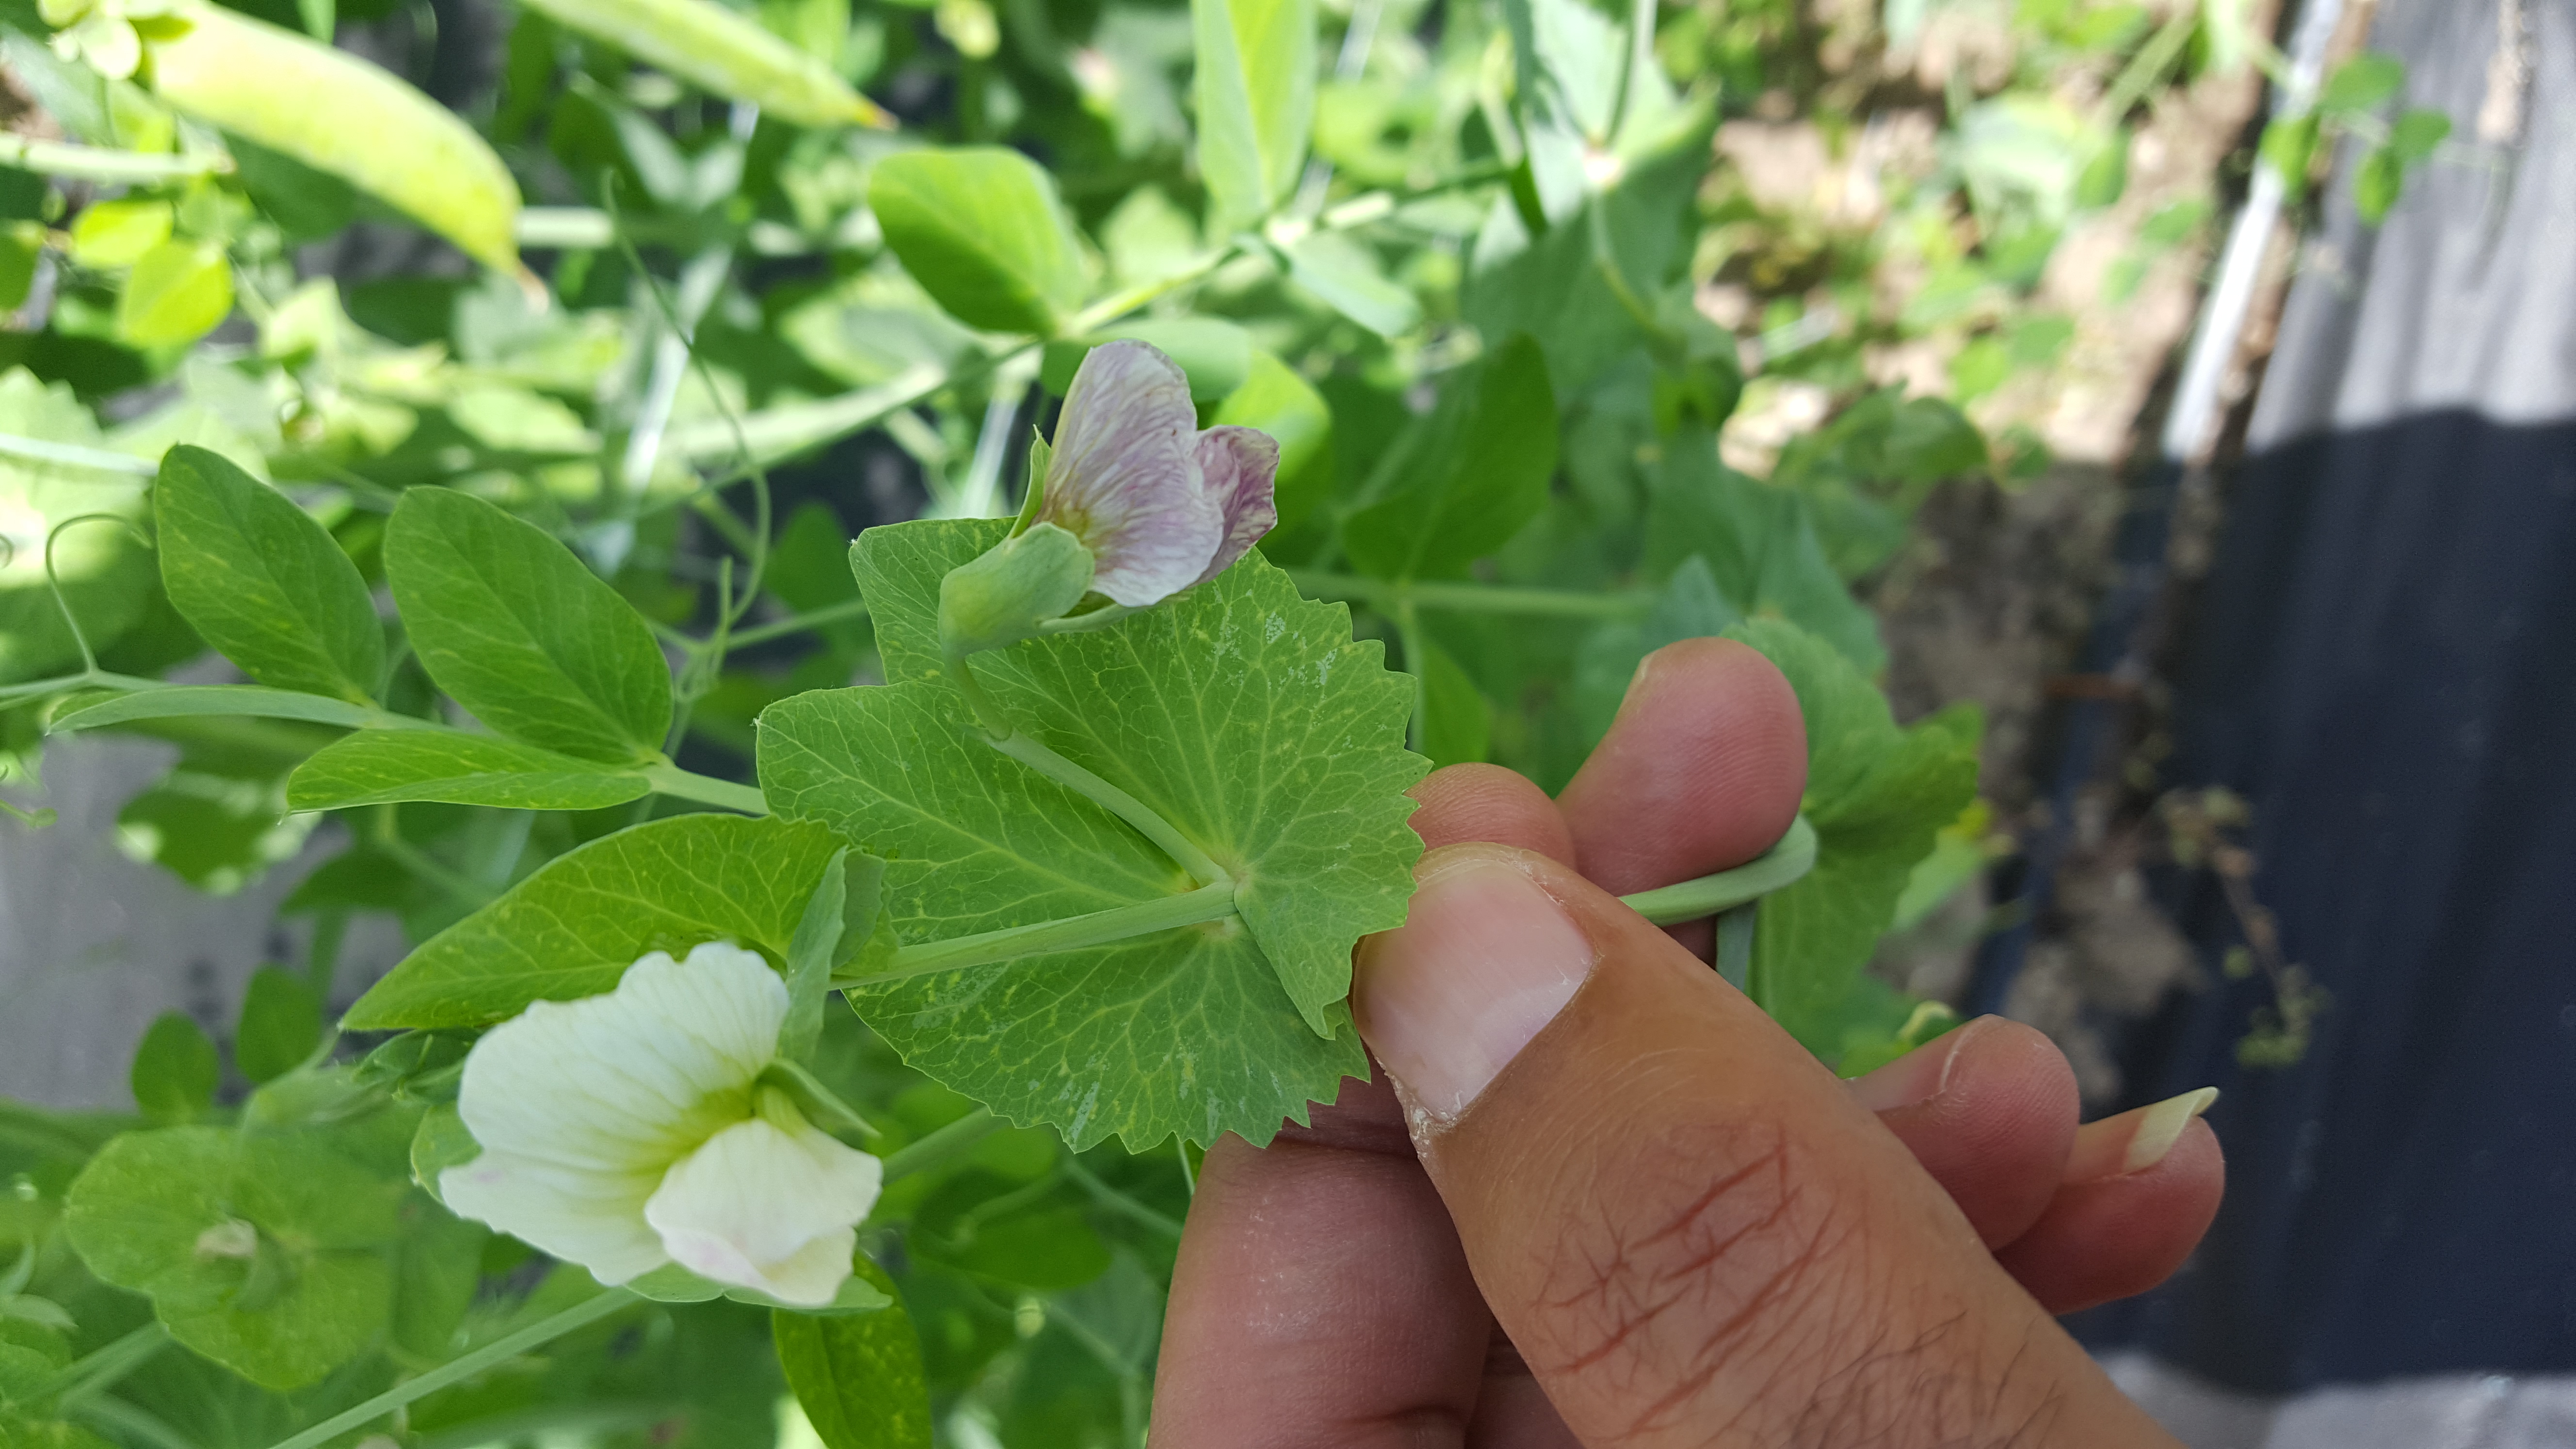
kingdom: Plantae
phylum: Tracheophyta
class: Magnoliopsida
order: Fabales
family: Fabaceae
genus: Lathyrus
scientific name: Lathyrus oleraceus
